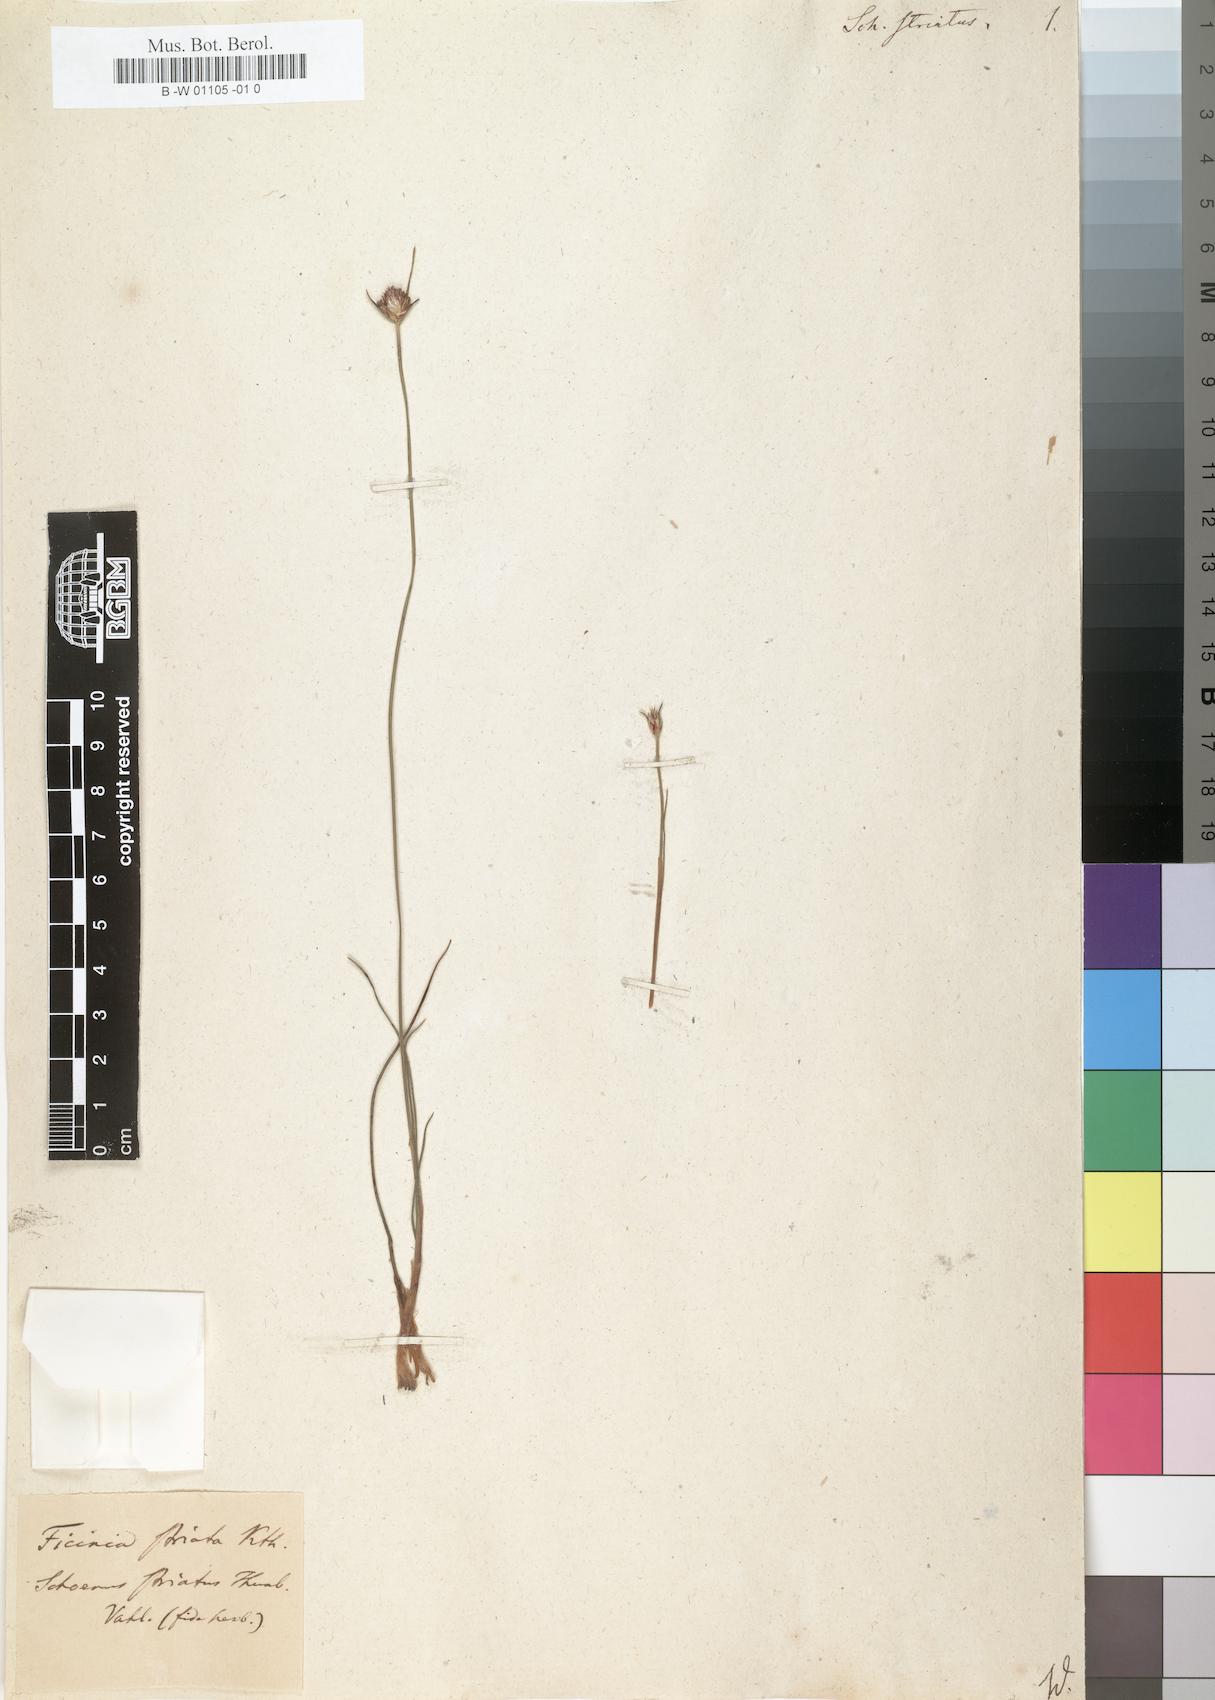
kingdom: Plantae
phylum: Tracheophyta
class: Liliopsida
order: Poales
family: Cyperaceae
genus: Ficinia
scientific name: Ficinia indica
